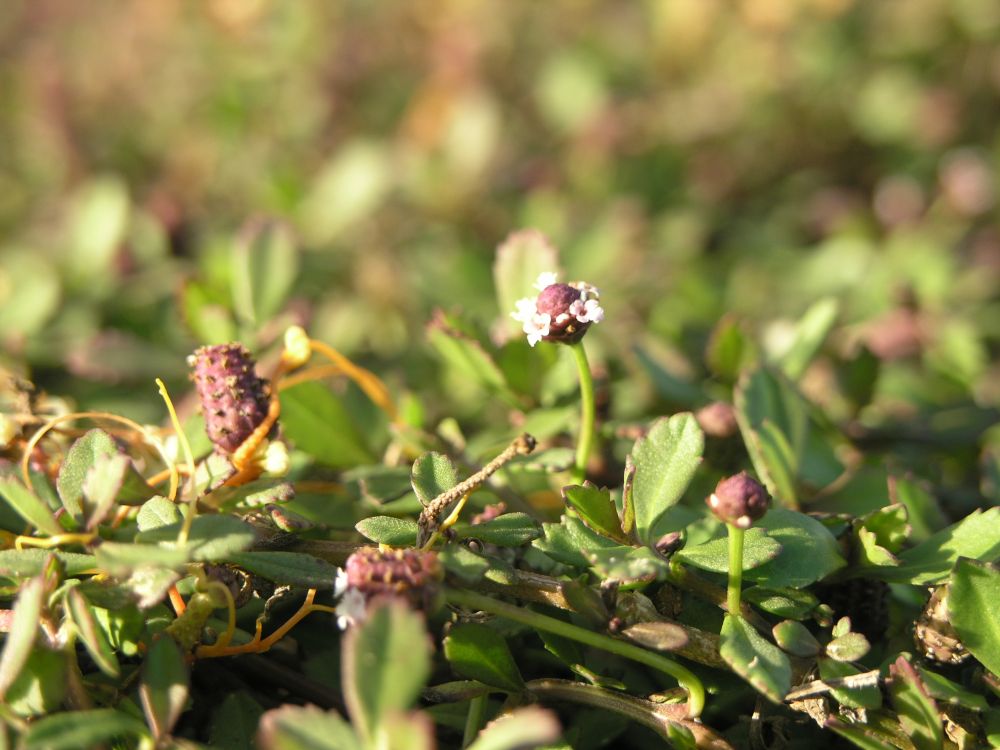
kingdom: Plantae
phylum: Tracheophyta
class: Magnoliopsida
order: Lamiales
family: Verbenaceae
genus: Phyla
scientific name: Phyla nodiflora
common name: Frogfruit
